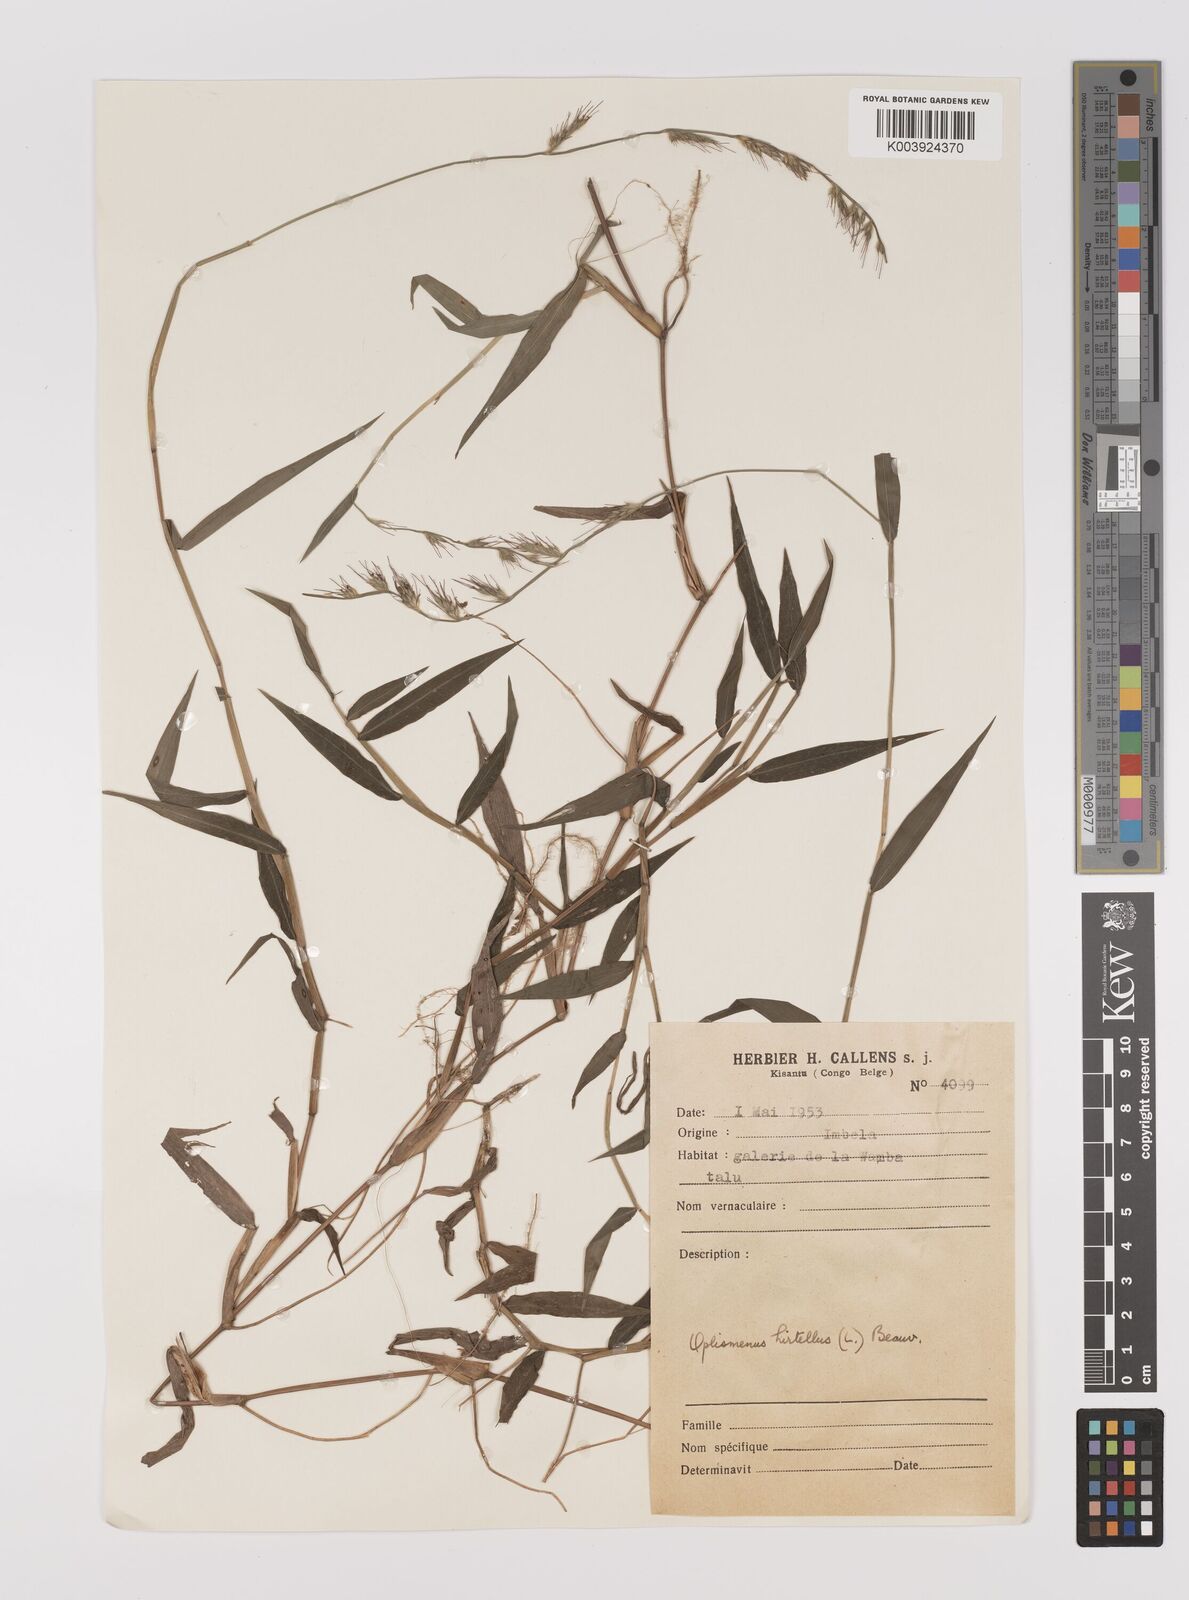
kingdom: Plantae
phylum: Tracheophyta
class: Liliopsida
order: Poales
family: Poaceae
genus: Oplismenus
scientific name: Oplismenus hirtellus
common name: Basketgrass
